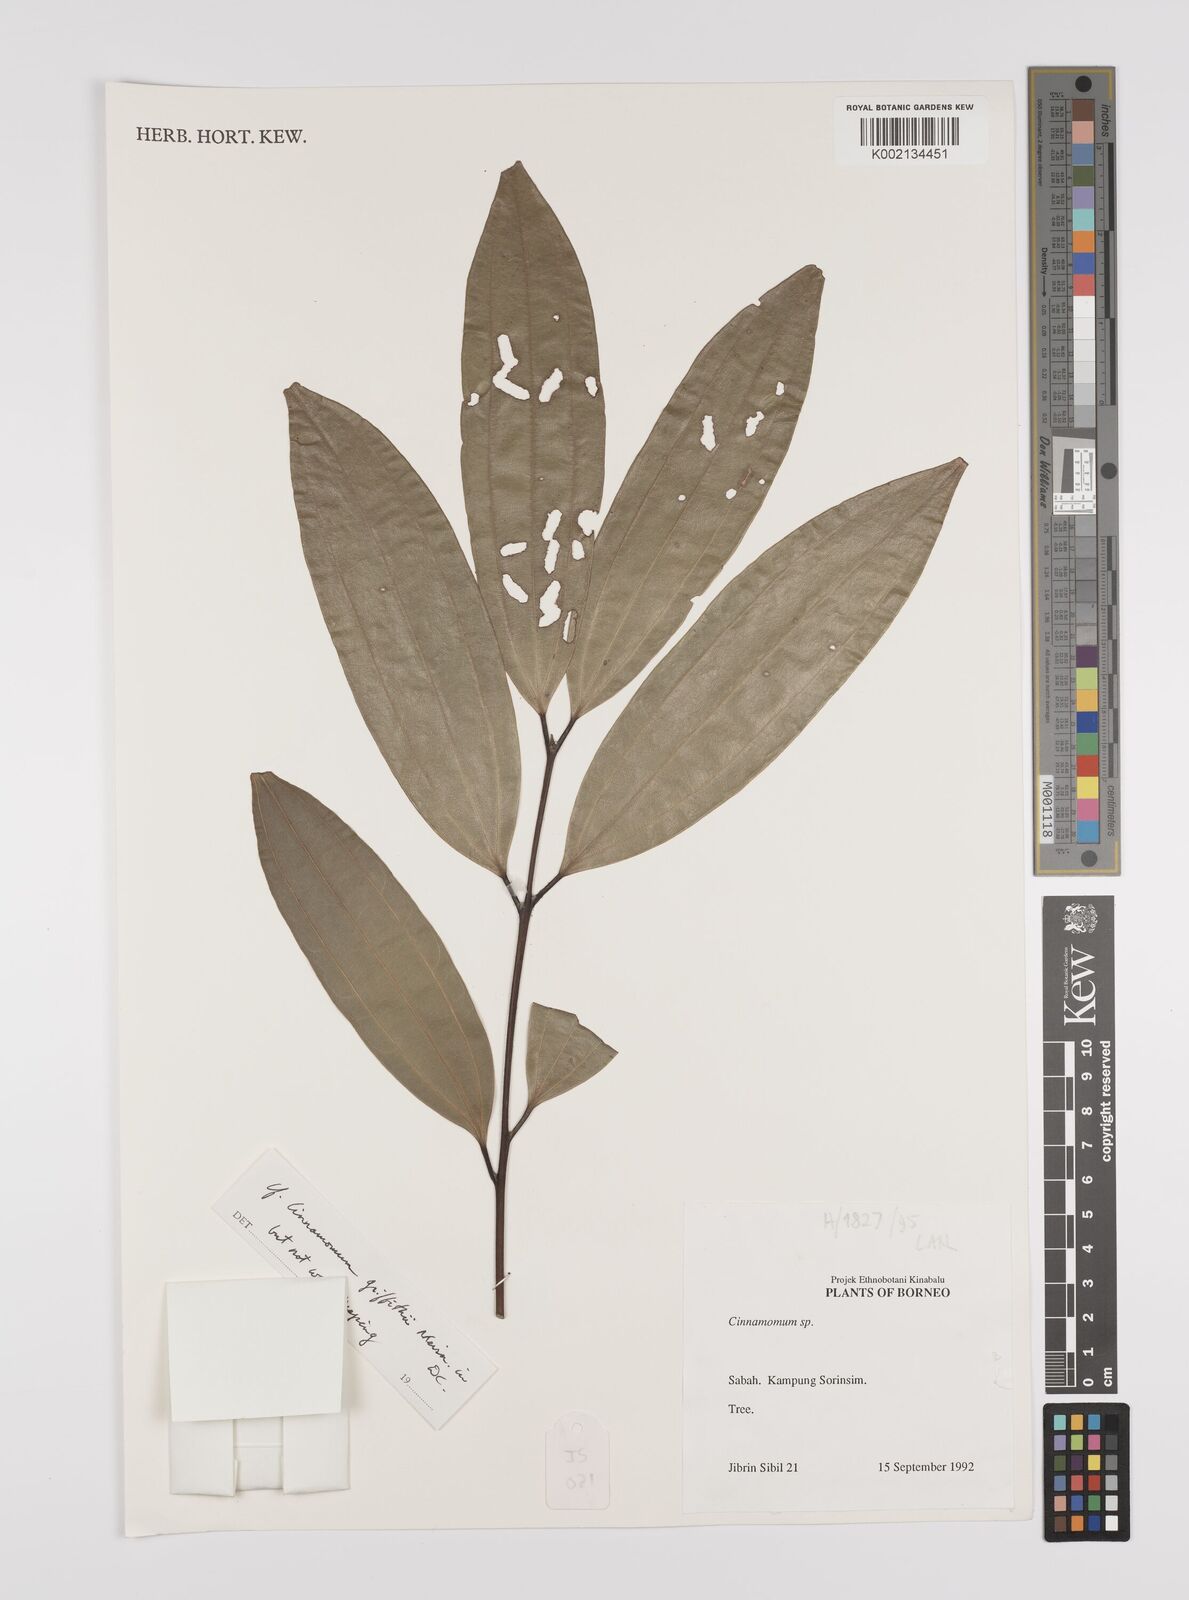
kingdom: Plantae
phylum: Tracheophyta
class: Magnoliopsida
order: Laurales
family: Lauraceae
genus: Cinnamomum
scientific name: Cinnamomum iners
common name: Wild cinnamon
